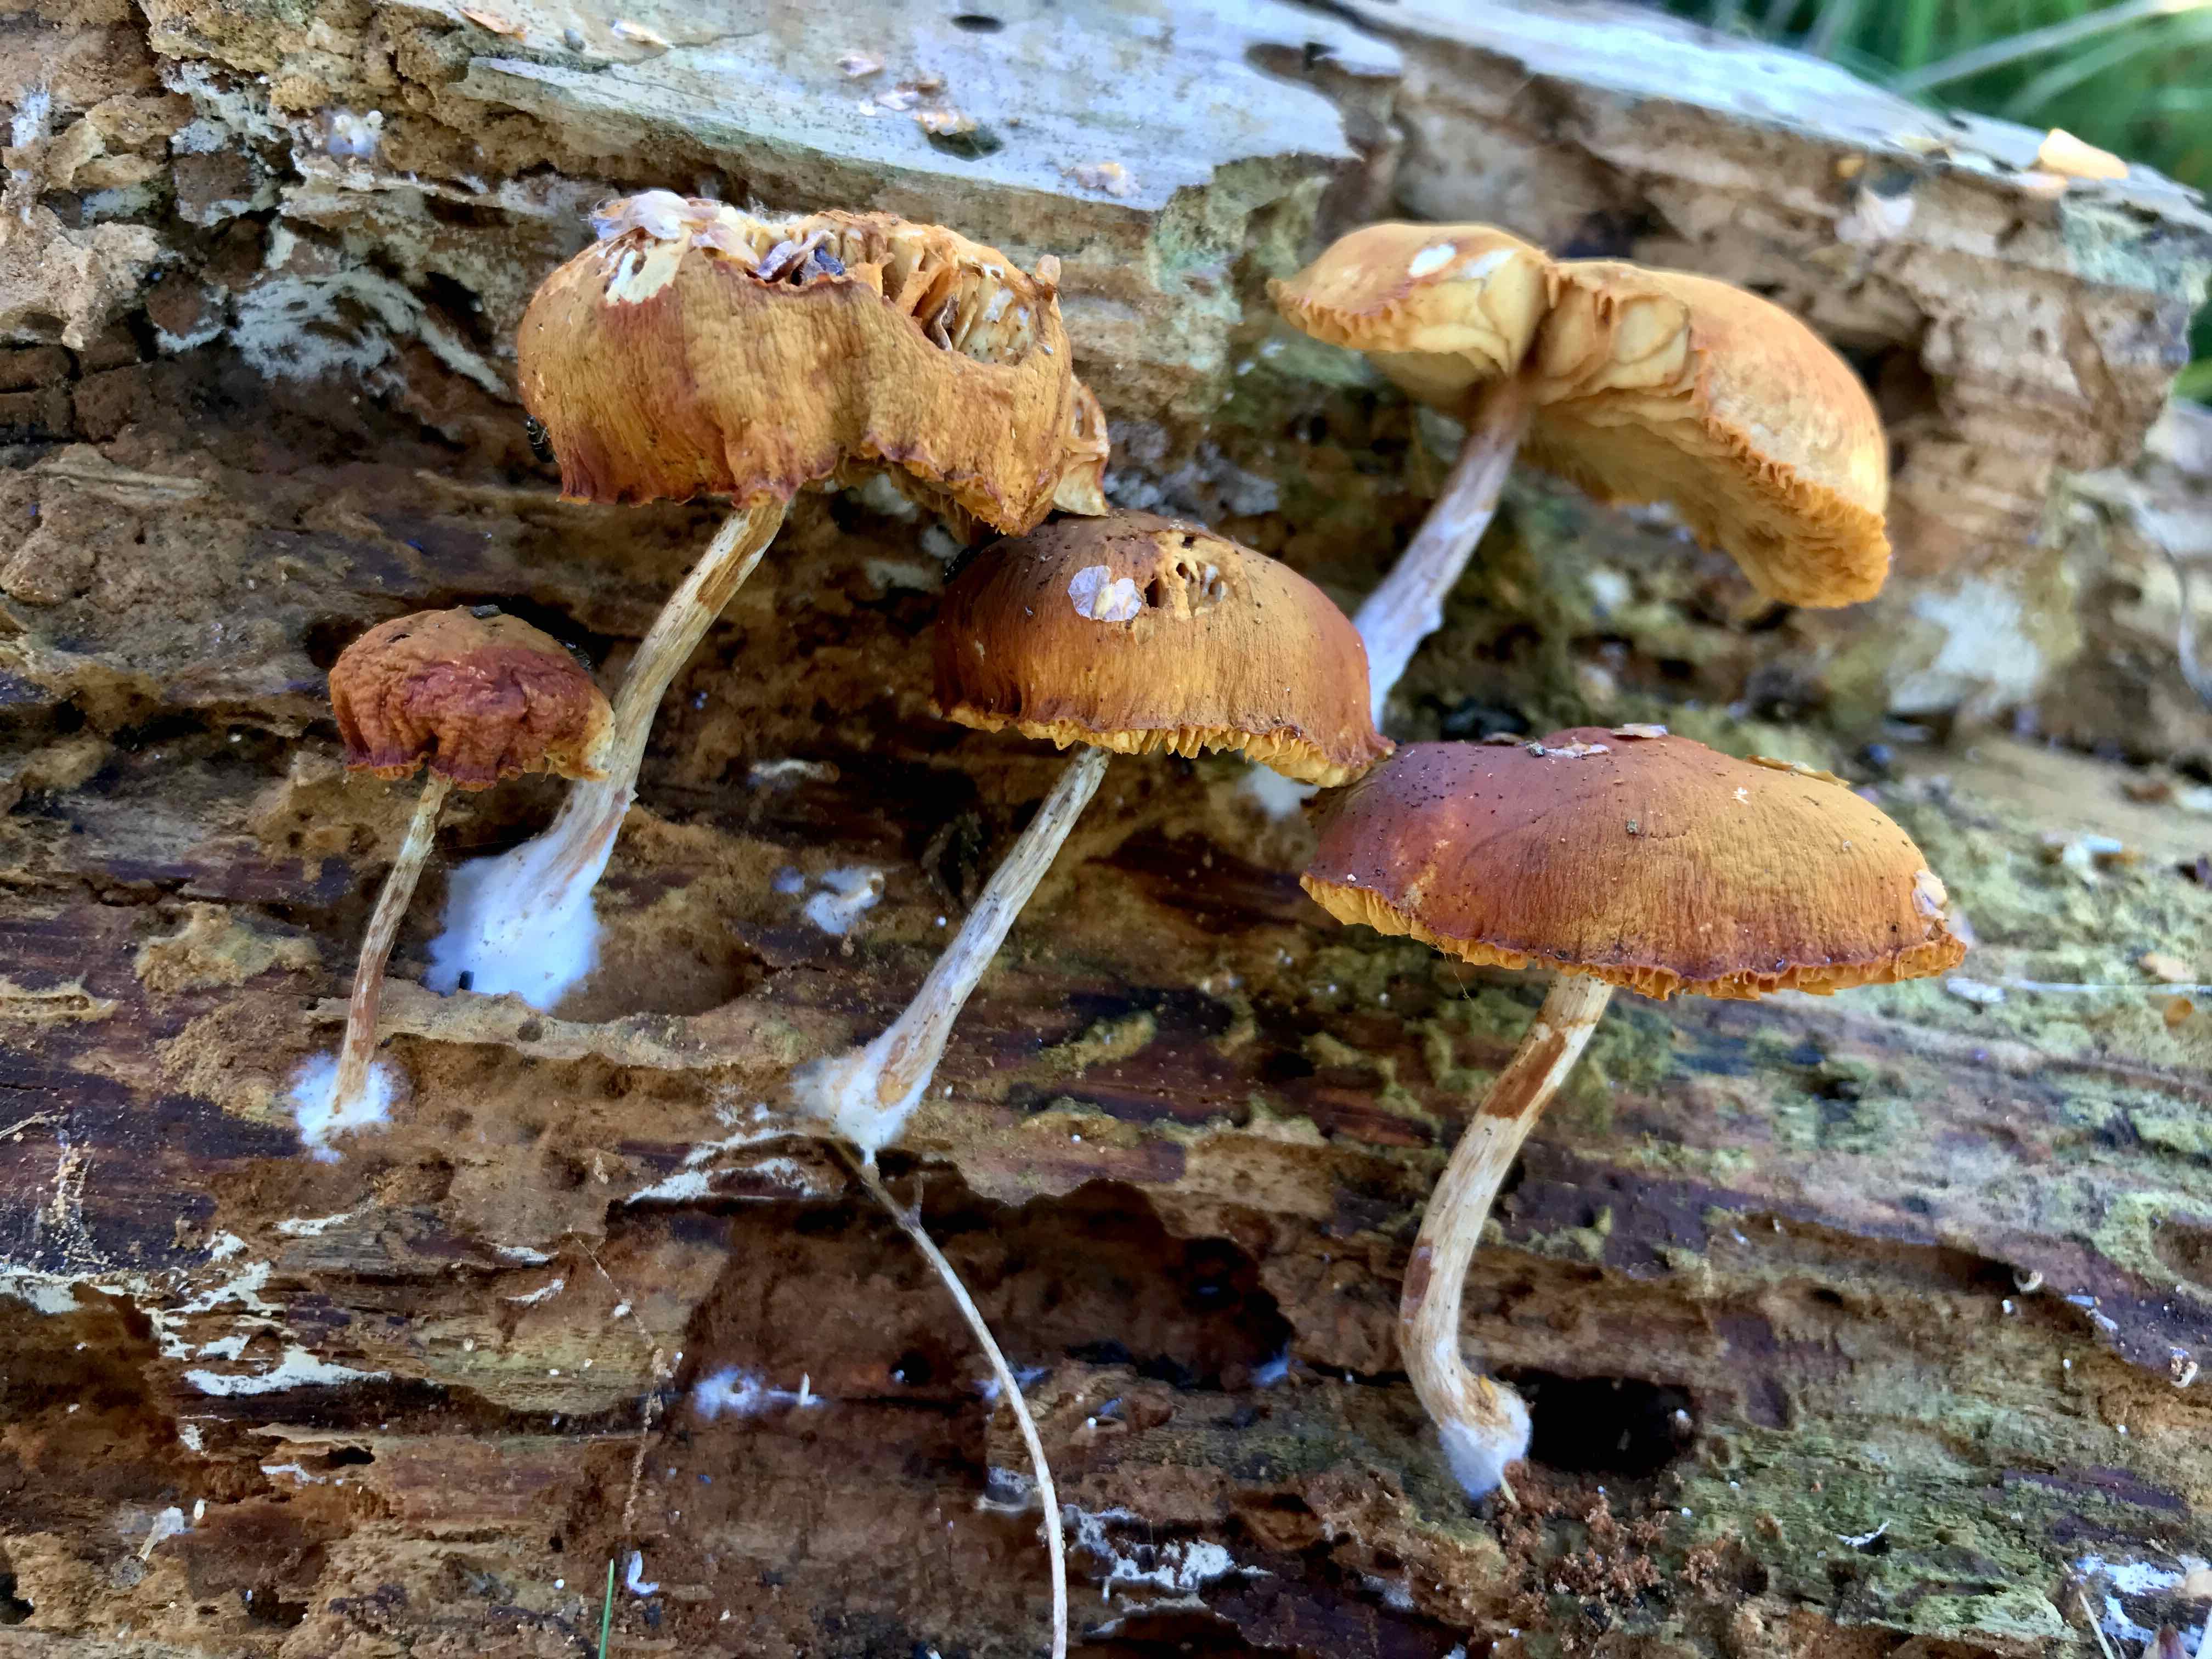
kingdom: Fungi
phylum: Basidiomycota
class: Agaricomycetes
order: Agaricales
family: Hymenogastraceae
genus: Gymnopilus
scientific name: Gymnopilus penetrans
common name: plettet flammehat
